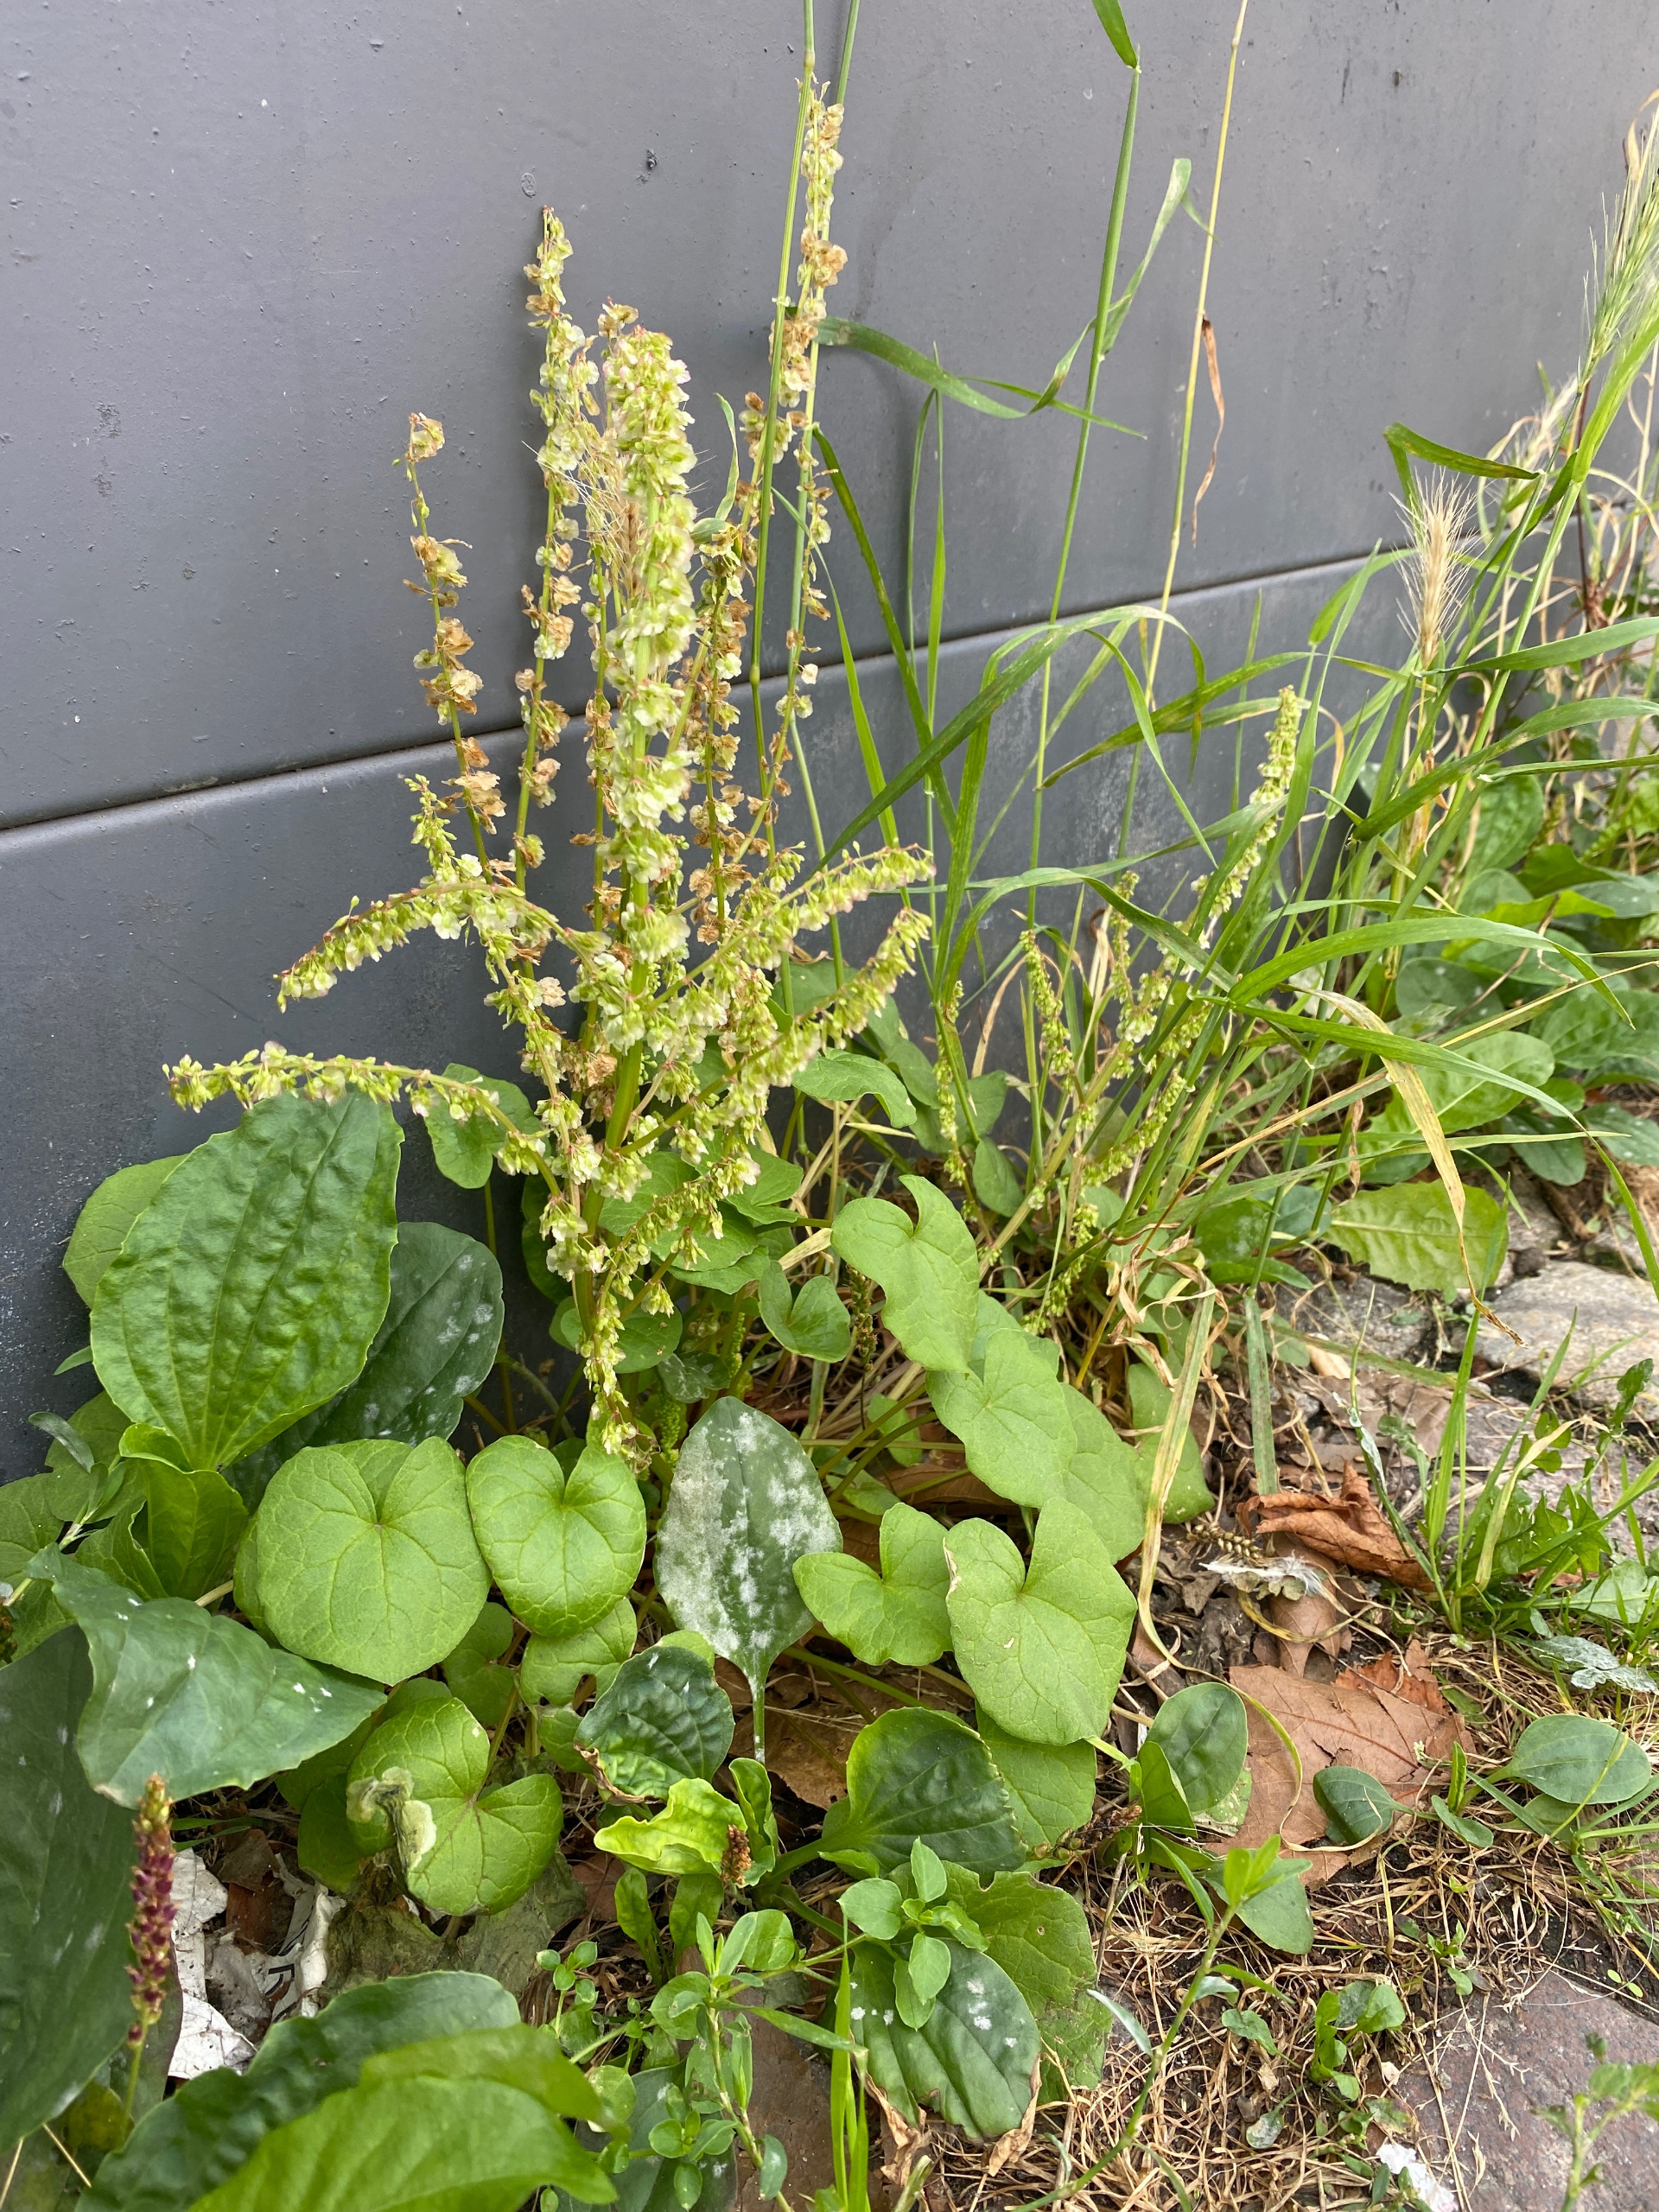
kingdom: Plantae
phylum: Tracheophyta
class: Magnoliopsida
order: Caryophyllales
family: Polygonaceae
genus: Oxyria
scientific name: Oxyria digyna
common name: Fjeldsyre
